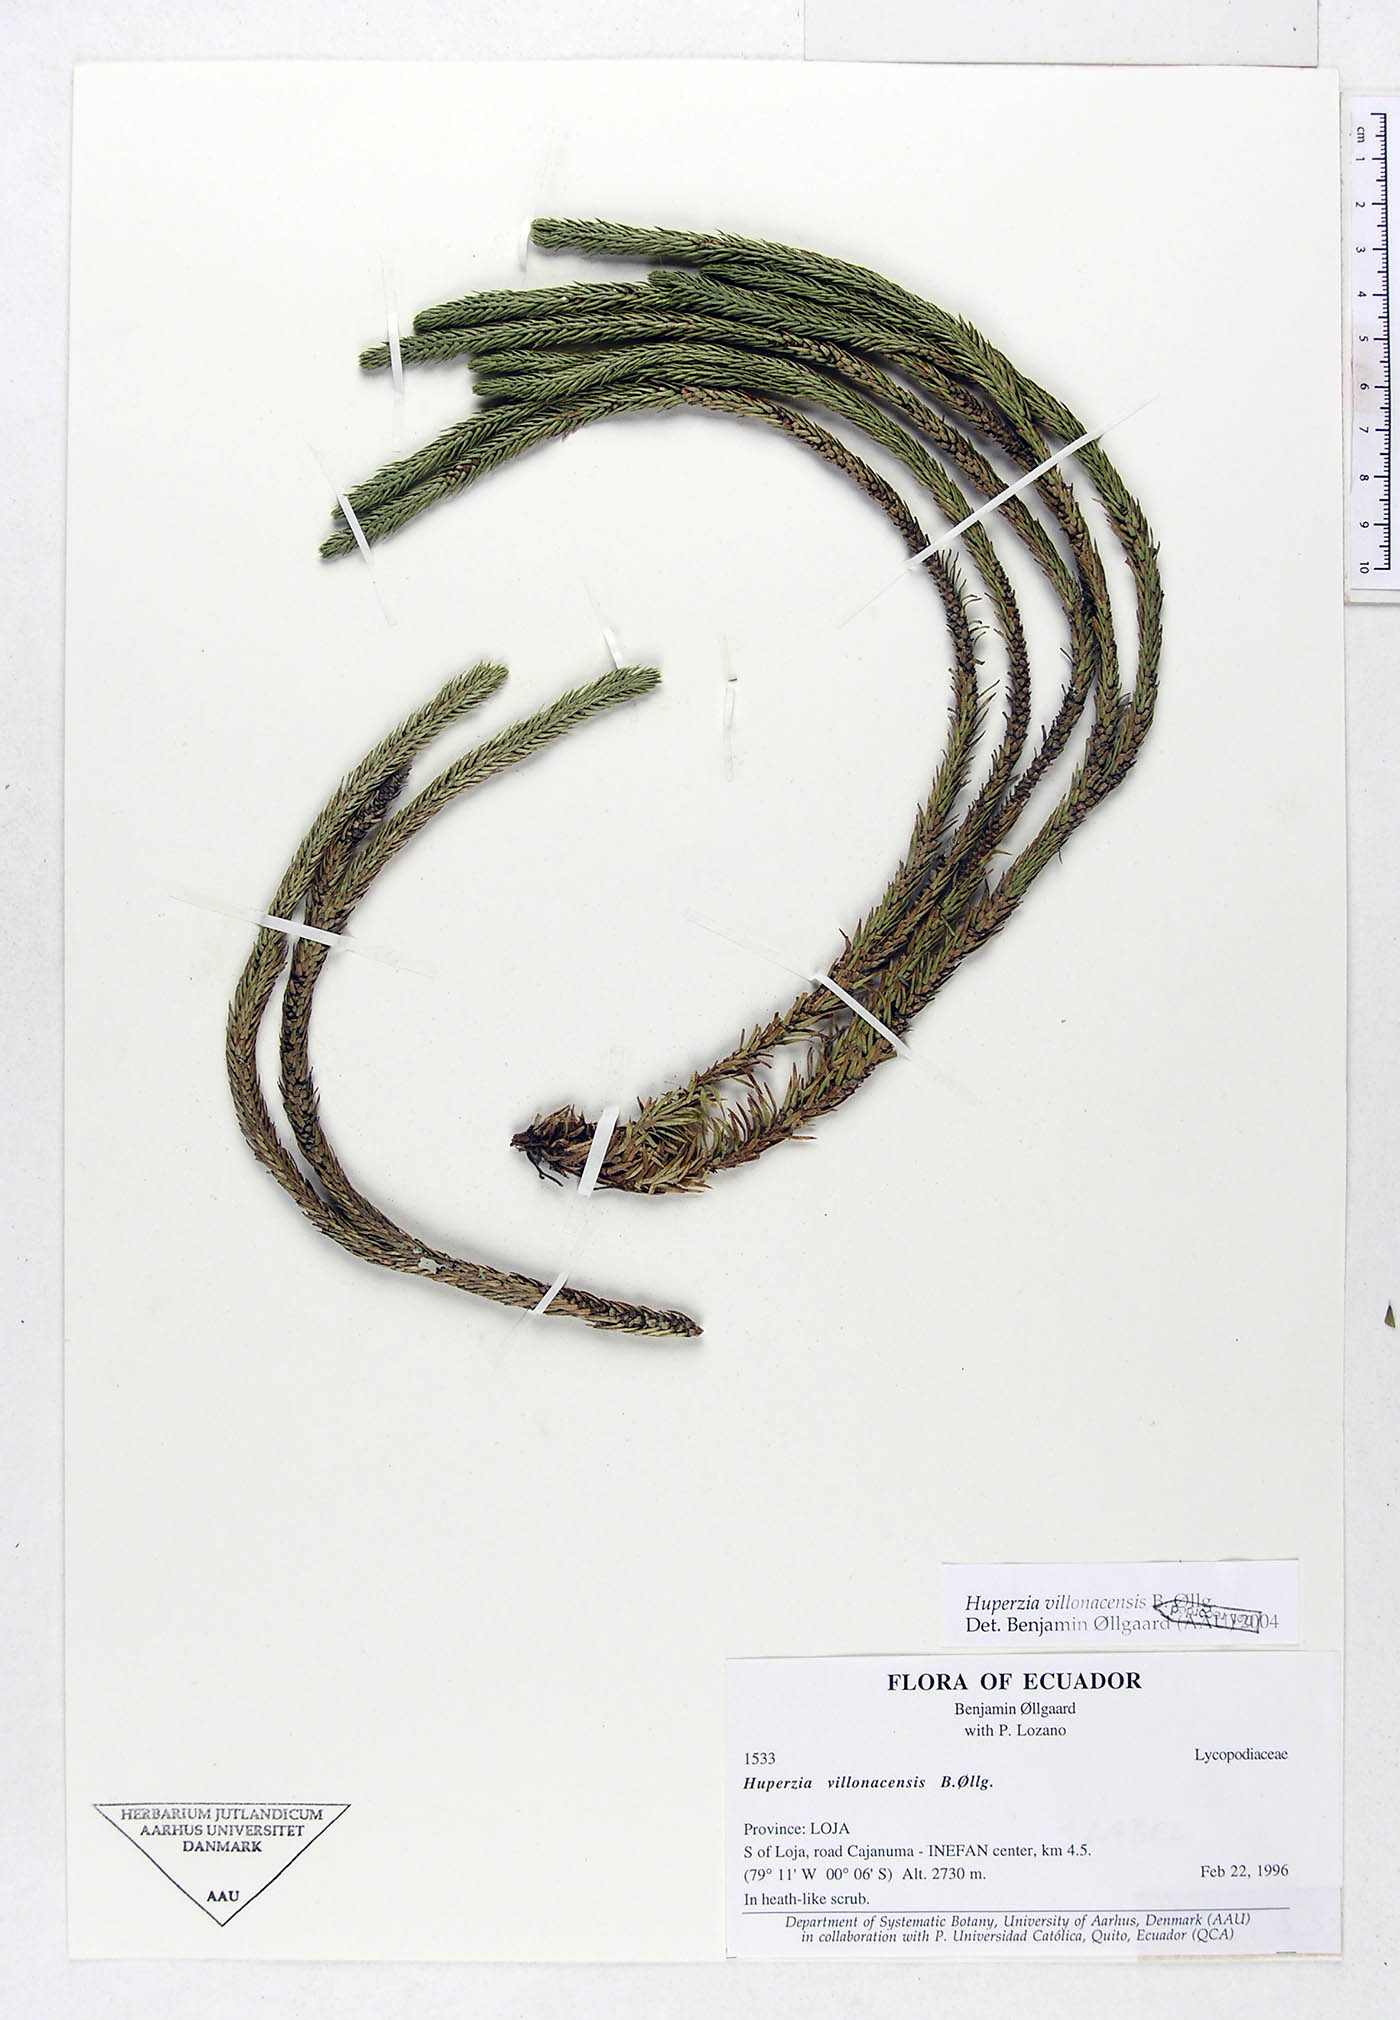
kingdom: Plantae
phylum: Tracheophyta
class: Lycopodiopsida
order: Lycopodiales
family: Lycopodiaceae
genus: Phlegmariurus
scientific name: Phlegmariurus villonacensis
